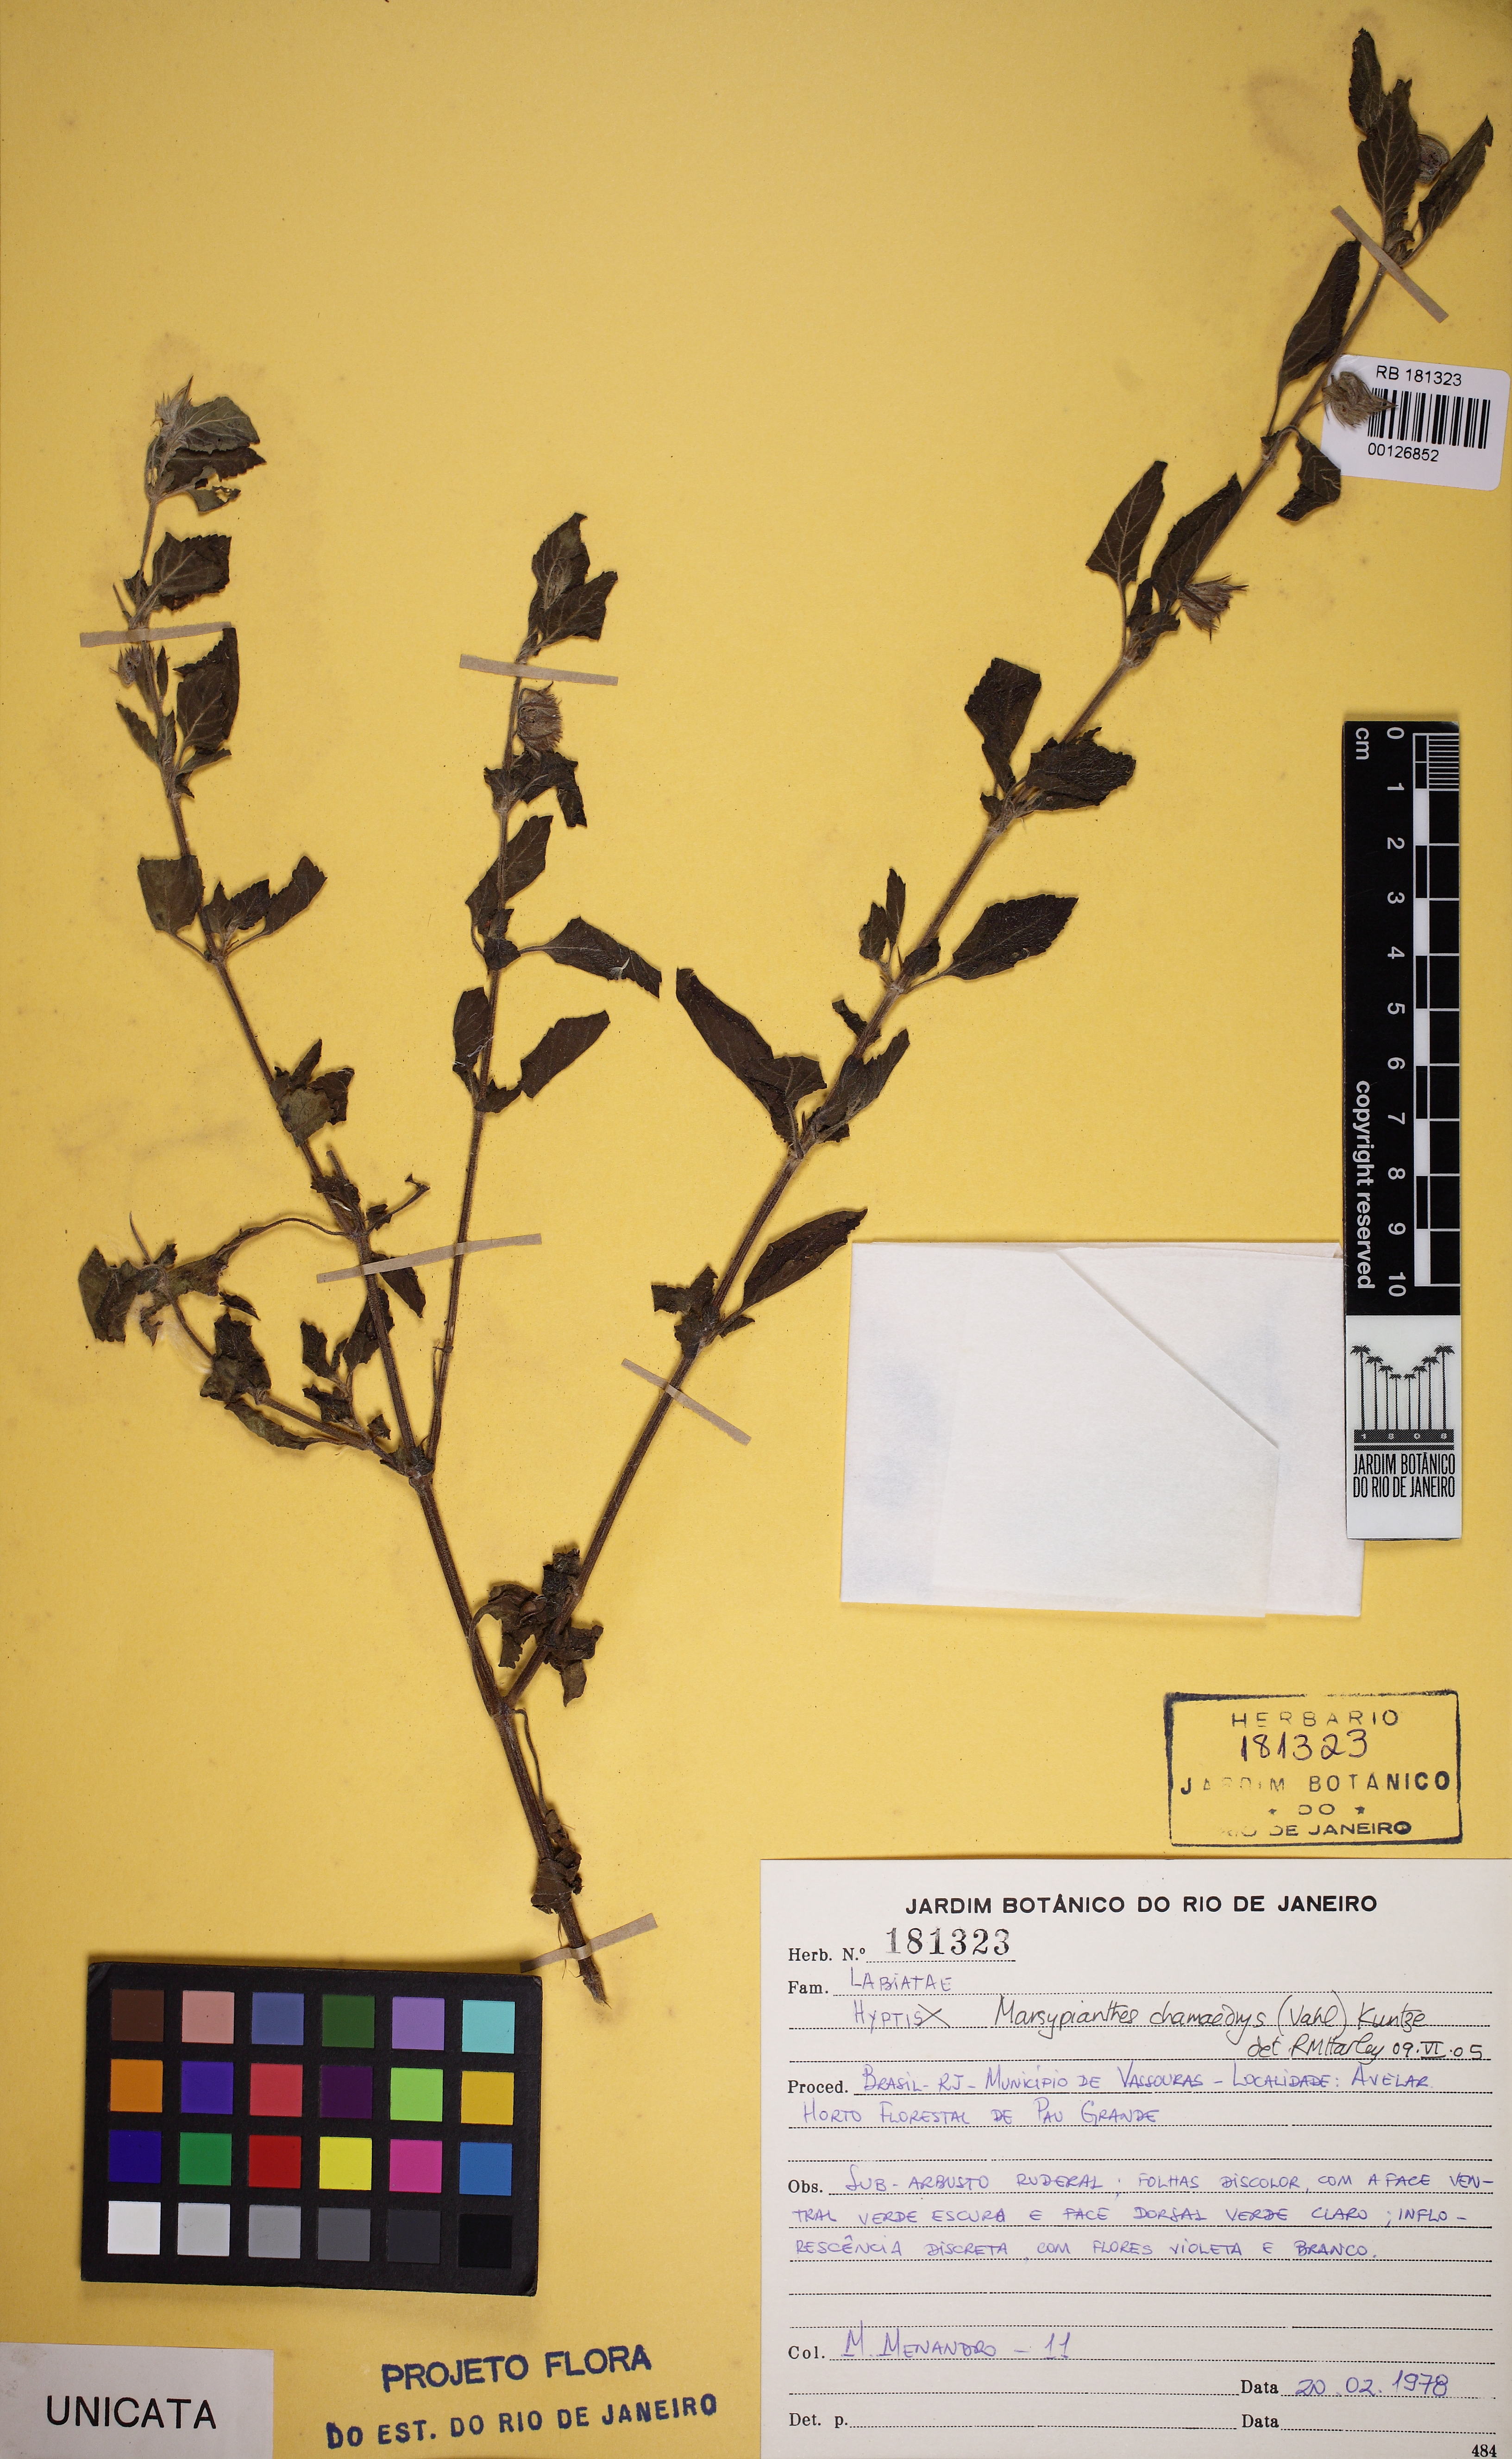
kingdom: Plantae
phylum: Tracheophyta
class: Magnoliopsida
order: Lamiales
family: Lamiaceae
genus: Marsypianthes
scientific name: Marsypianthes chamaedrys
